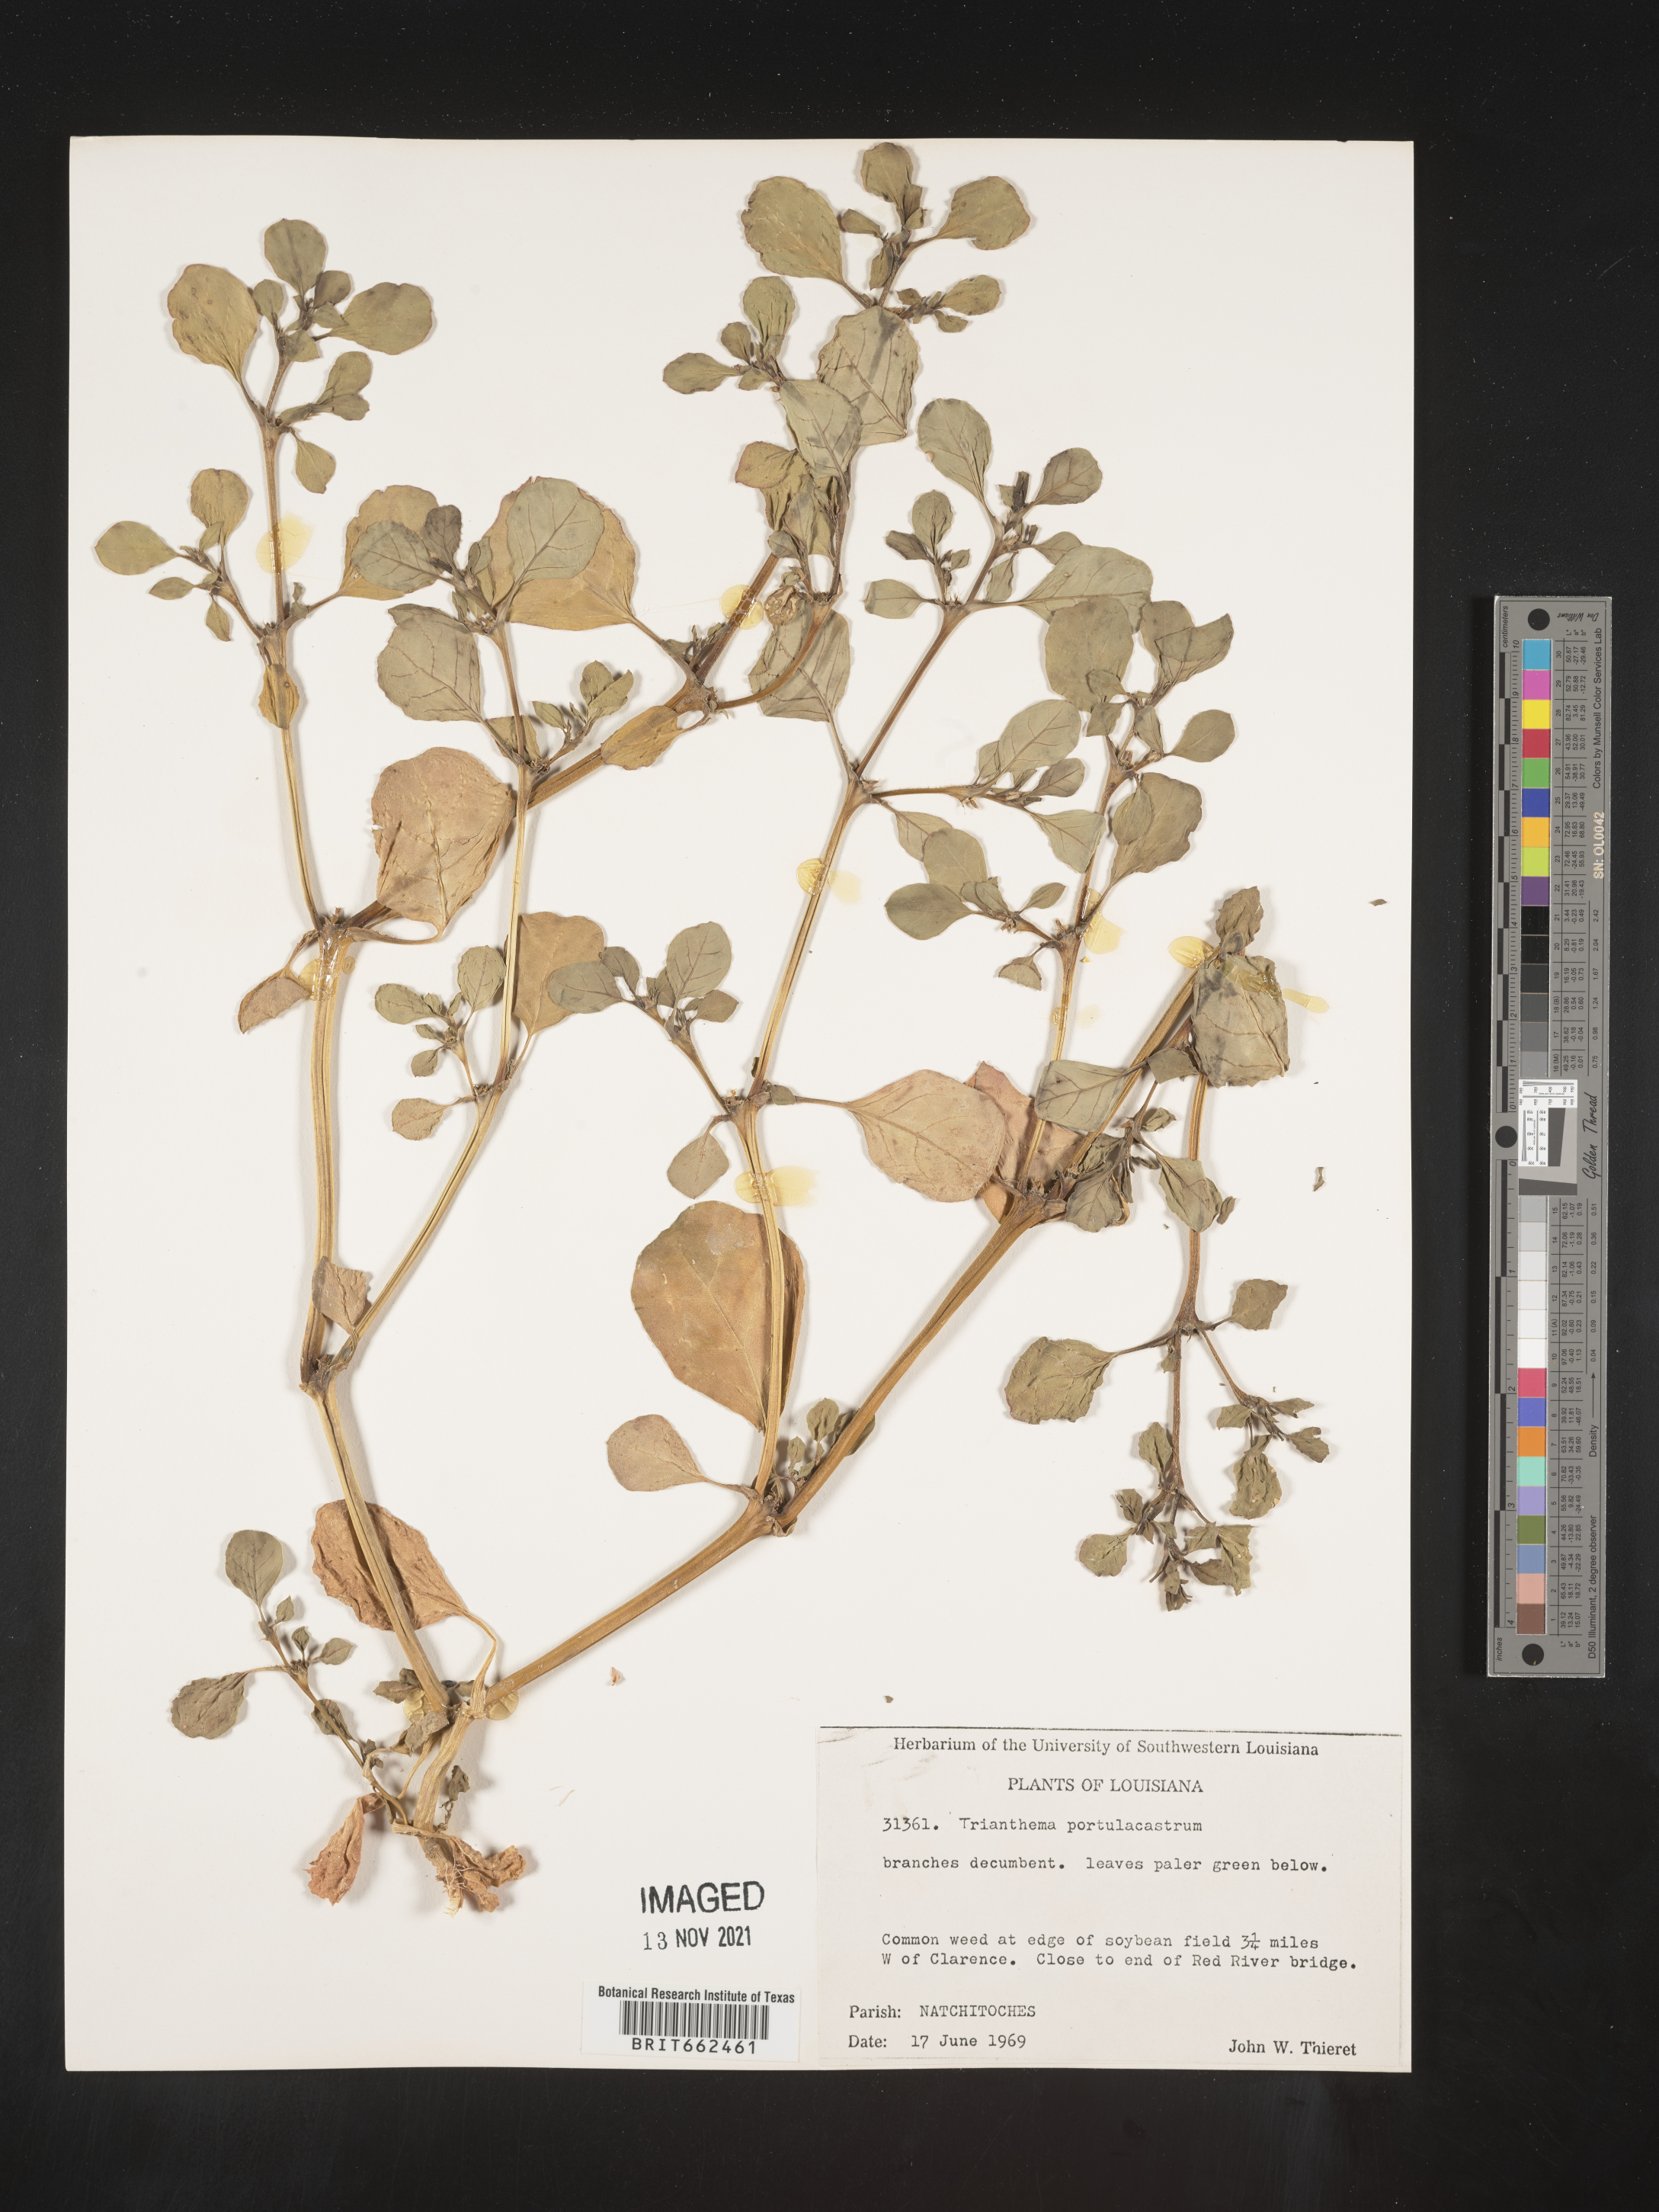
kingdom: Plantae
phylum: Tracheophyta
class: Magnoliopsida
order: Caryophyllales
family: Aizoaceae
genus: Trianthema
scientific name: Trianthema
